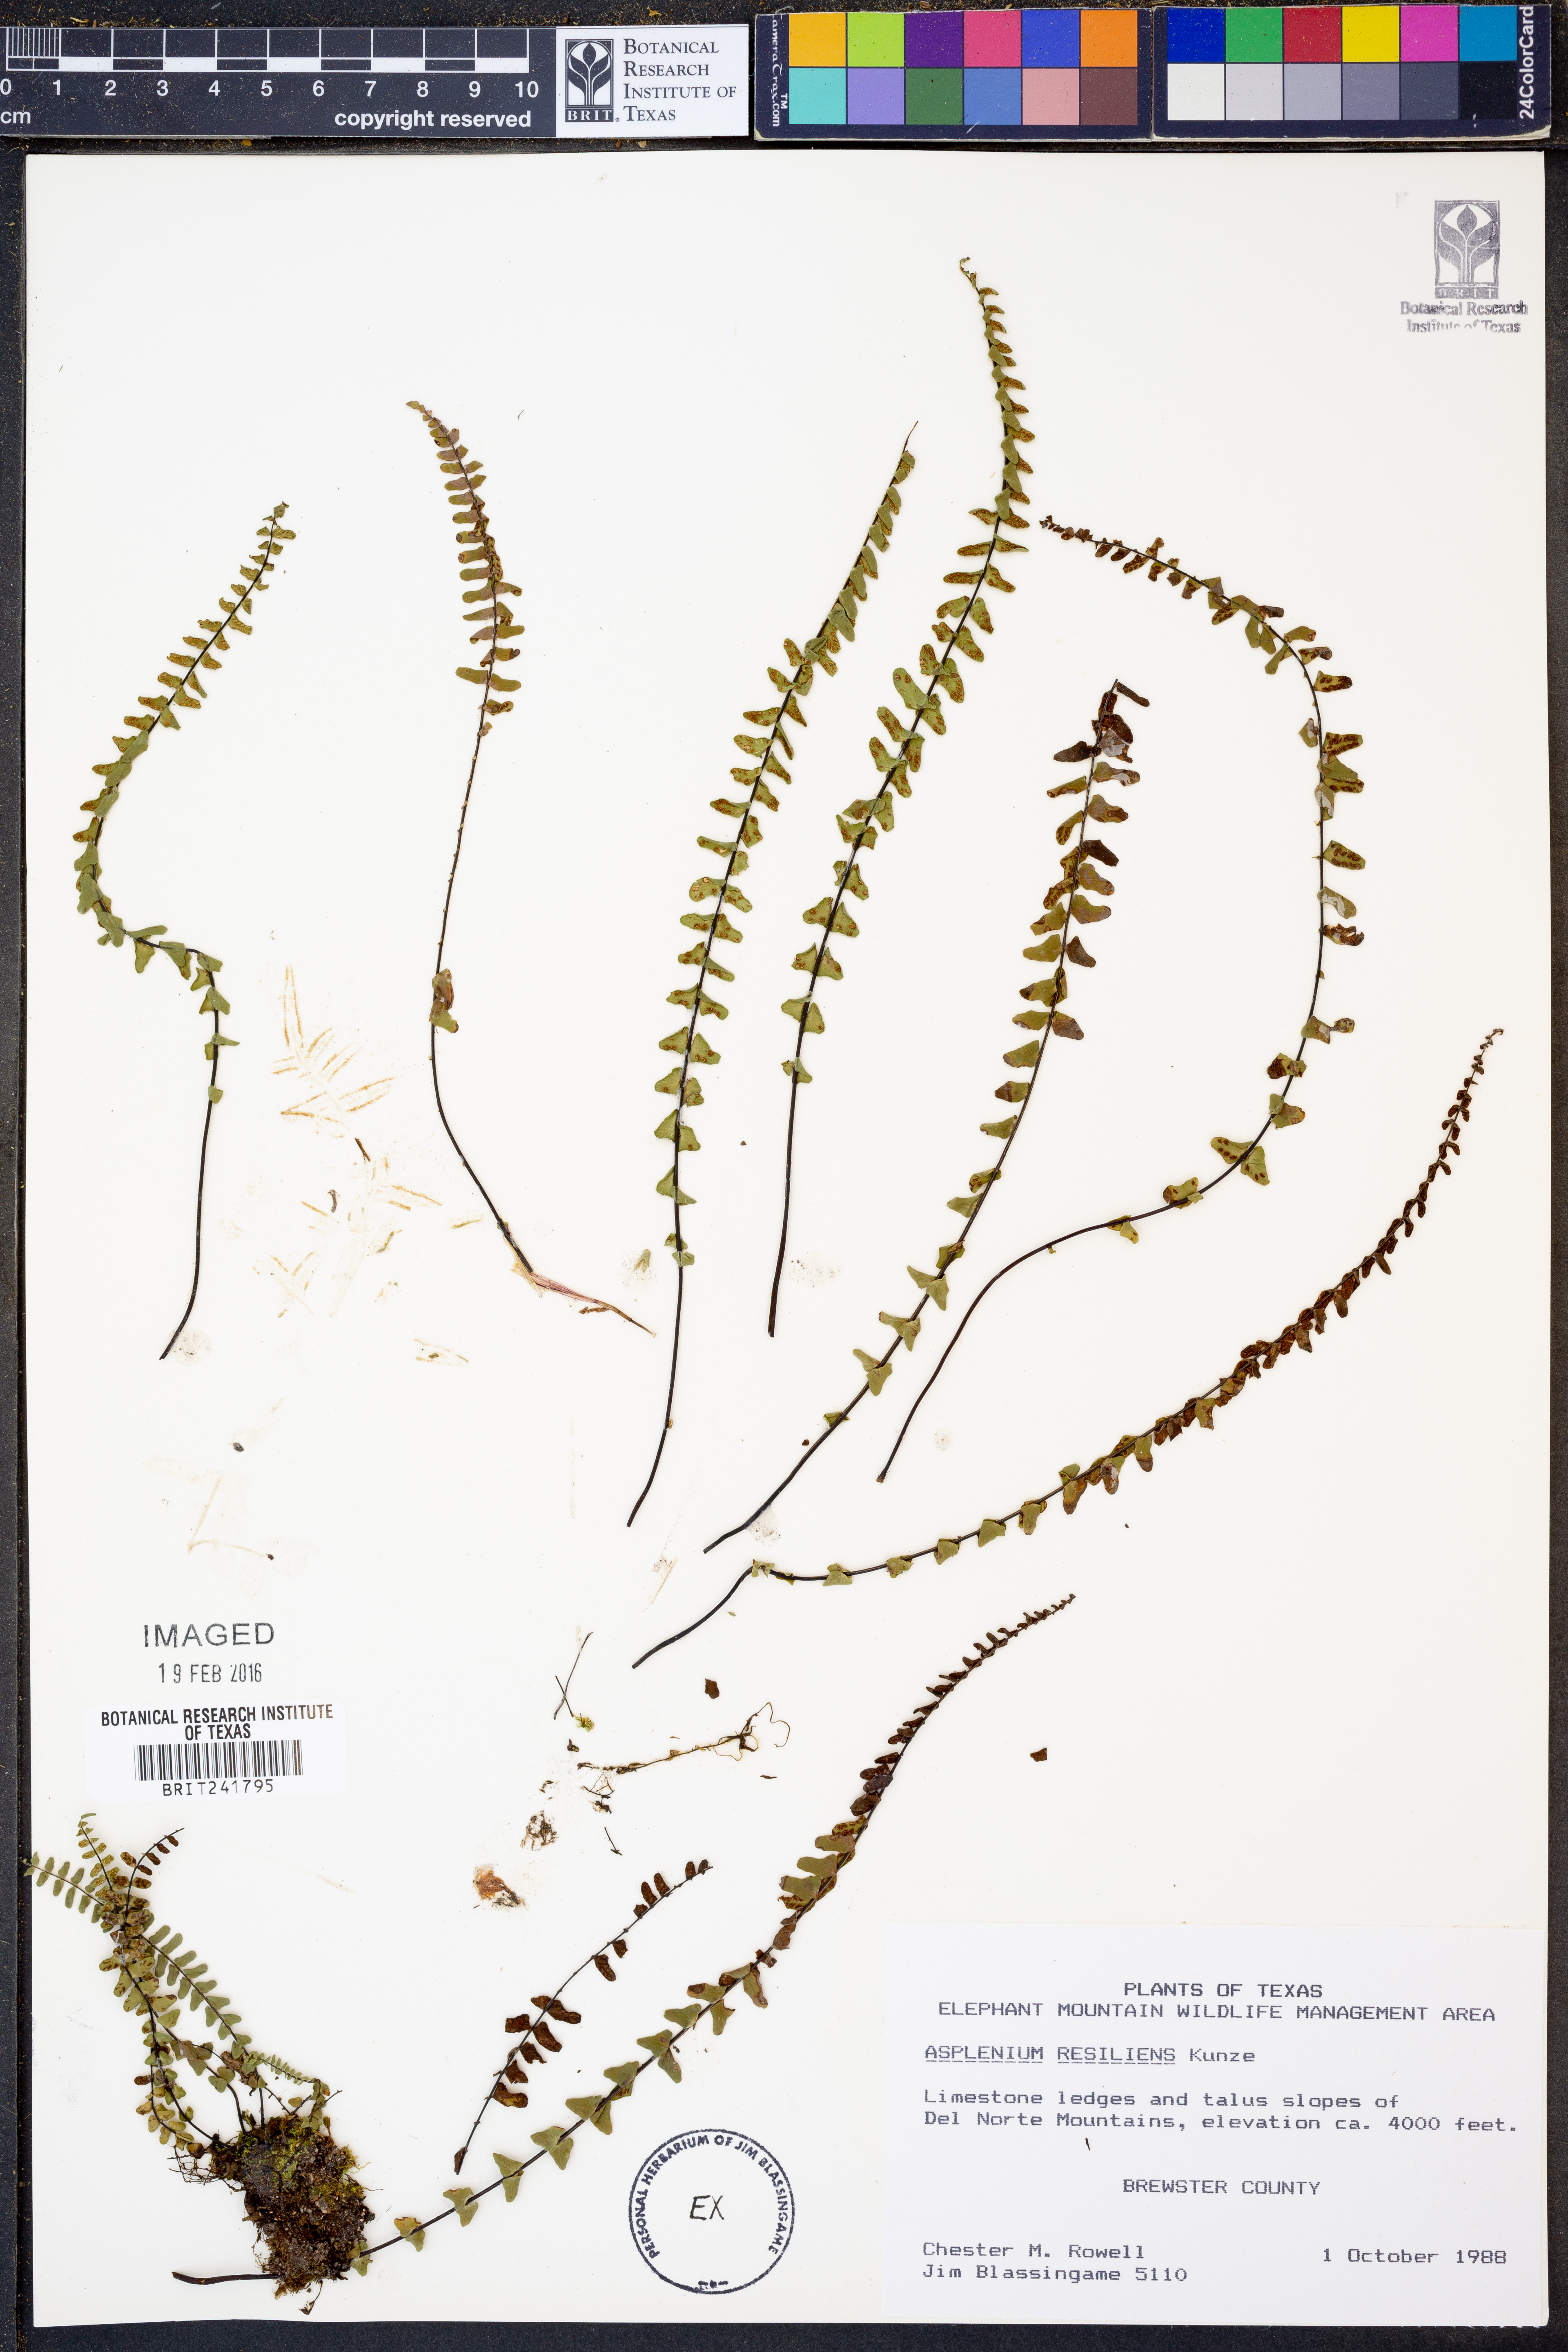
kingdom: Plantae
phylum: Tracheophyta
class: Polypodiopsida
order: Polypodiales
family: Aspleniaceae
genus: Asplenium
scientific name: Asplenium resiliens
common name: Blackstem spleenwort
